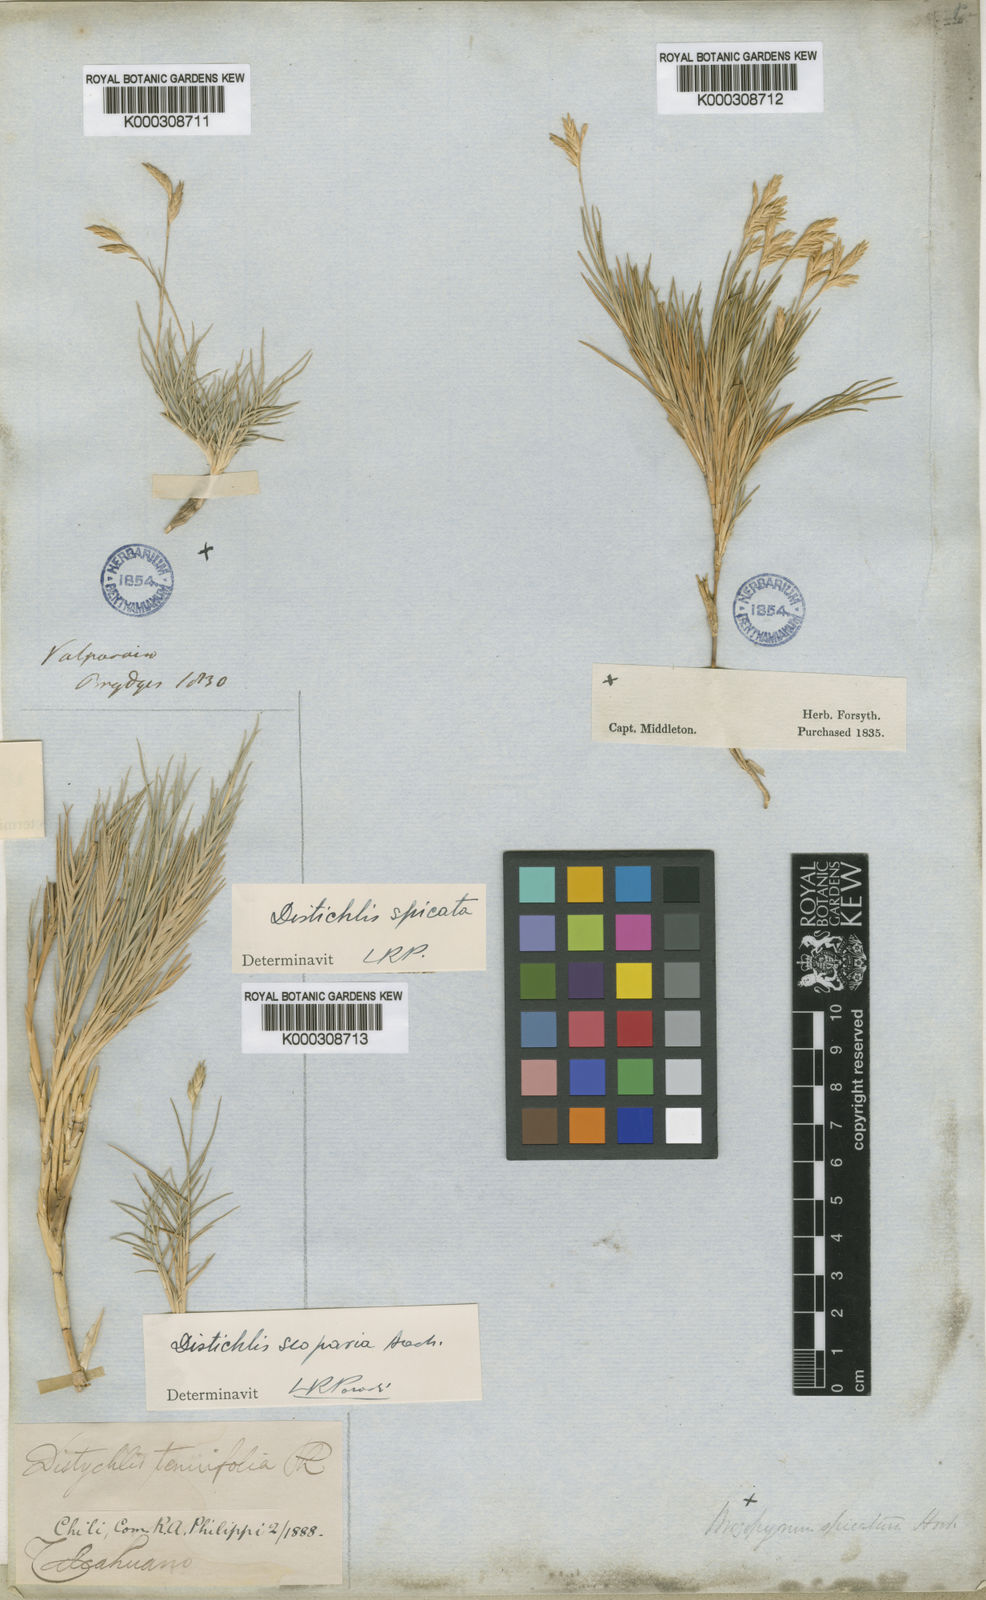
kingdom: Plantae
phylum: Tracheophyta
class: Liliopsida
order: Poales
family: Poaceae
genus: Distichlis
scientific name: Distichlis scoparia
